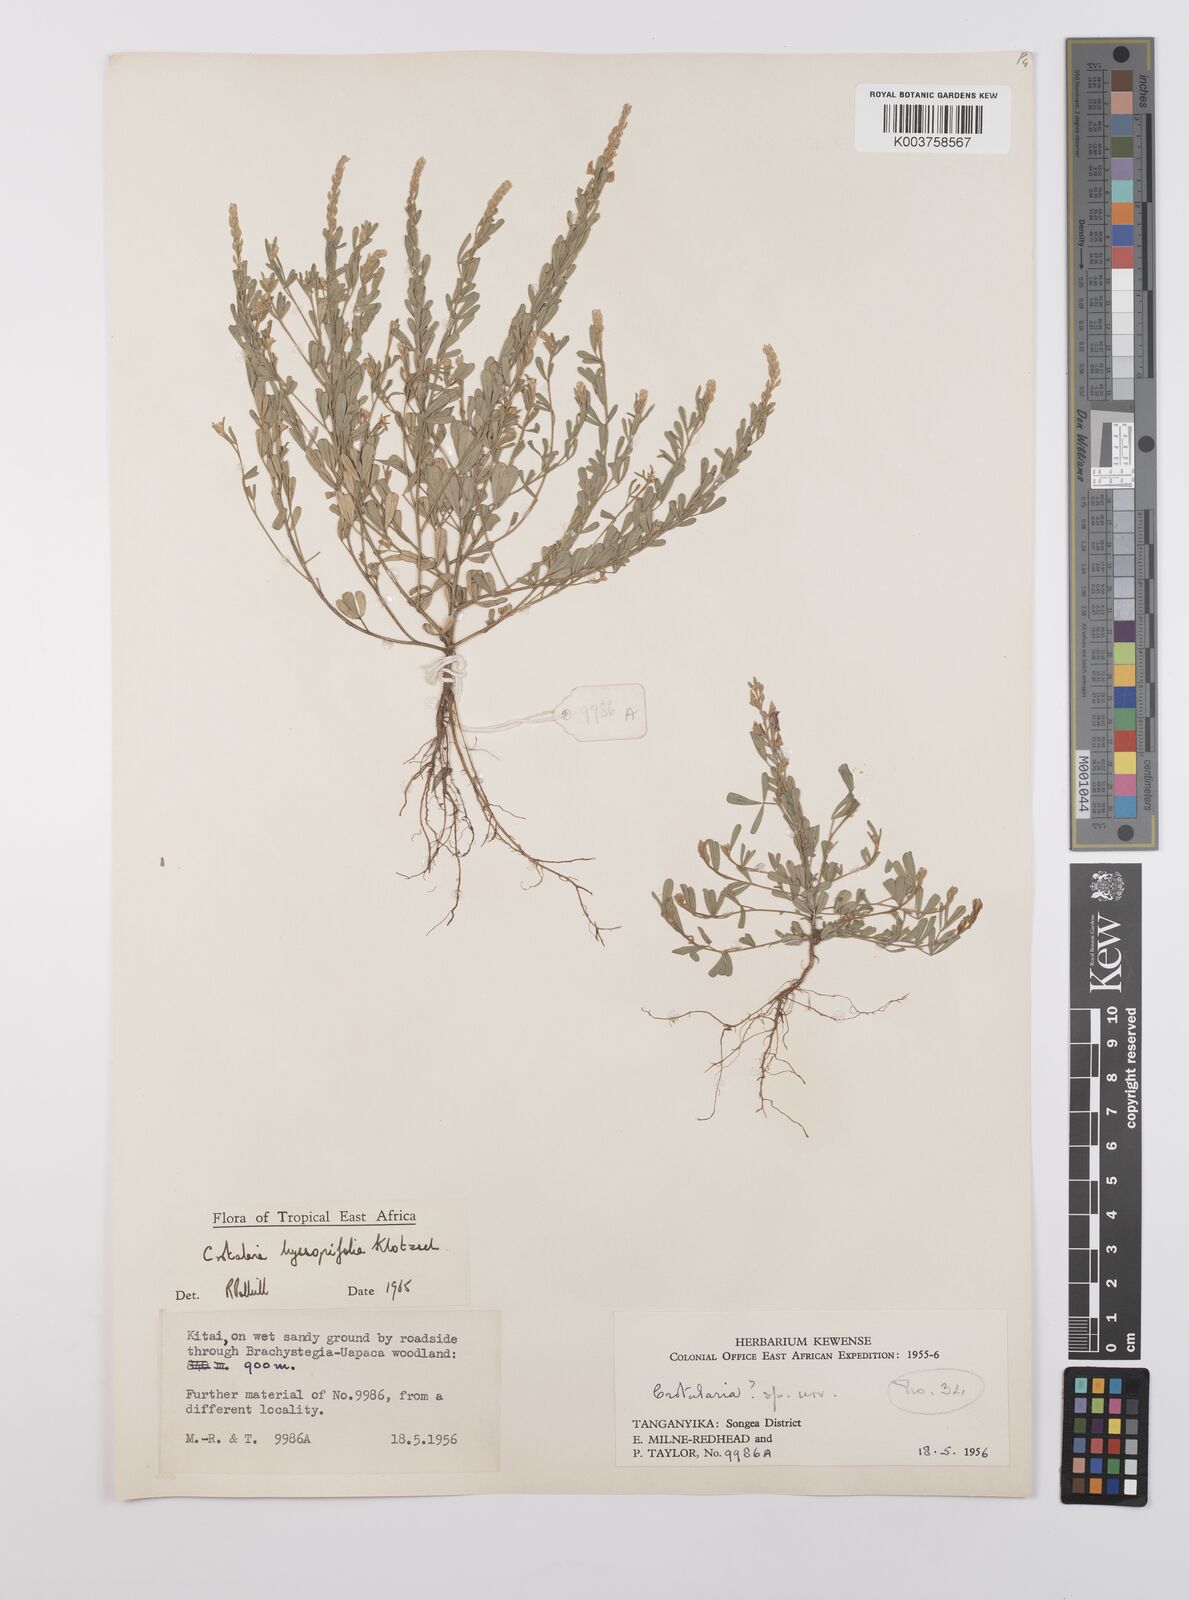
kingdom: Plantae
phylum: Tracheophyta
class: Magnoliopsida
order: Fabales
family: Fabaceae
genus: Crotalaria
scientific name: Crotalaria hyssopifolia
